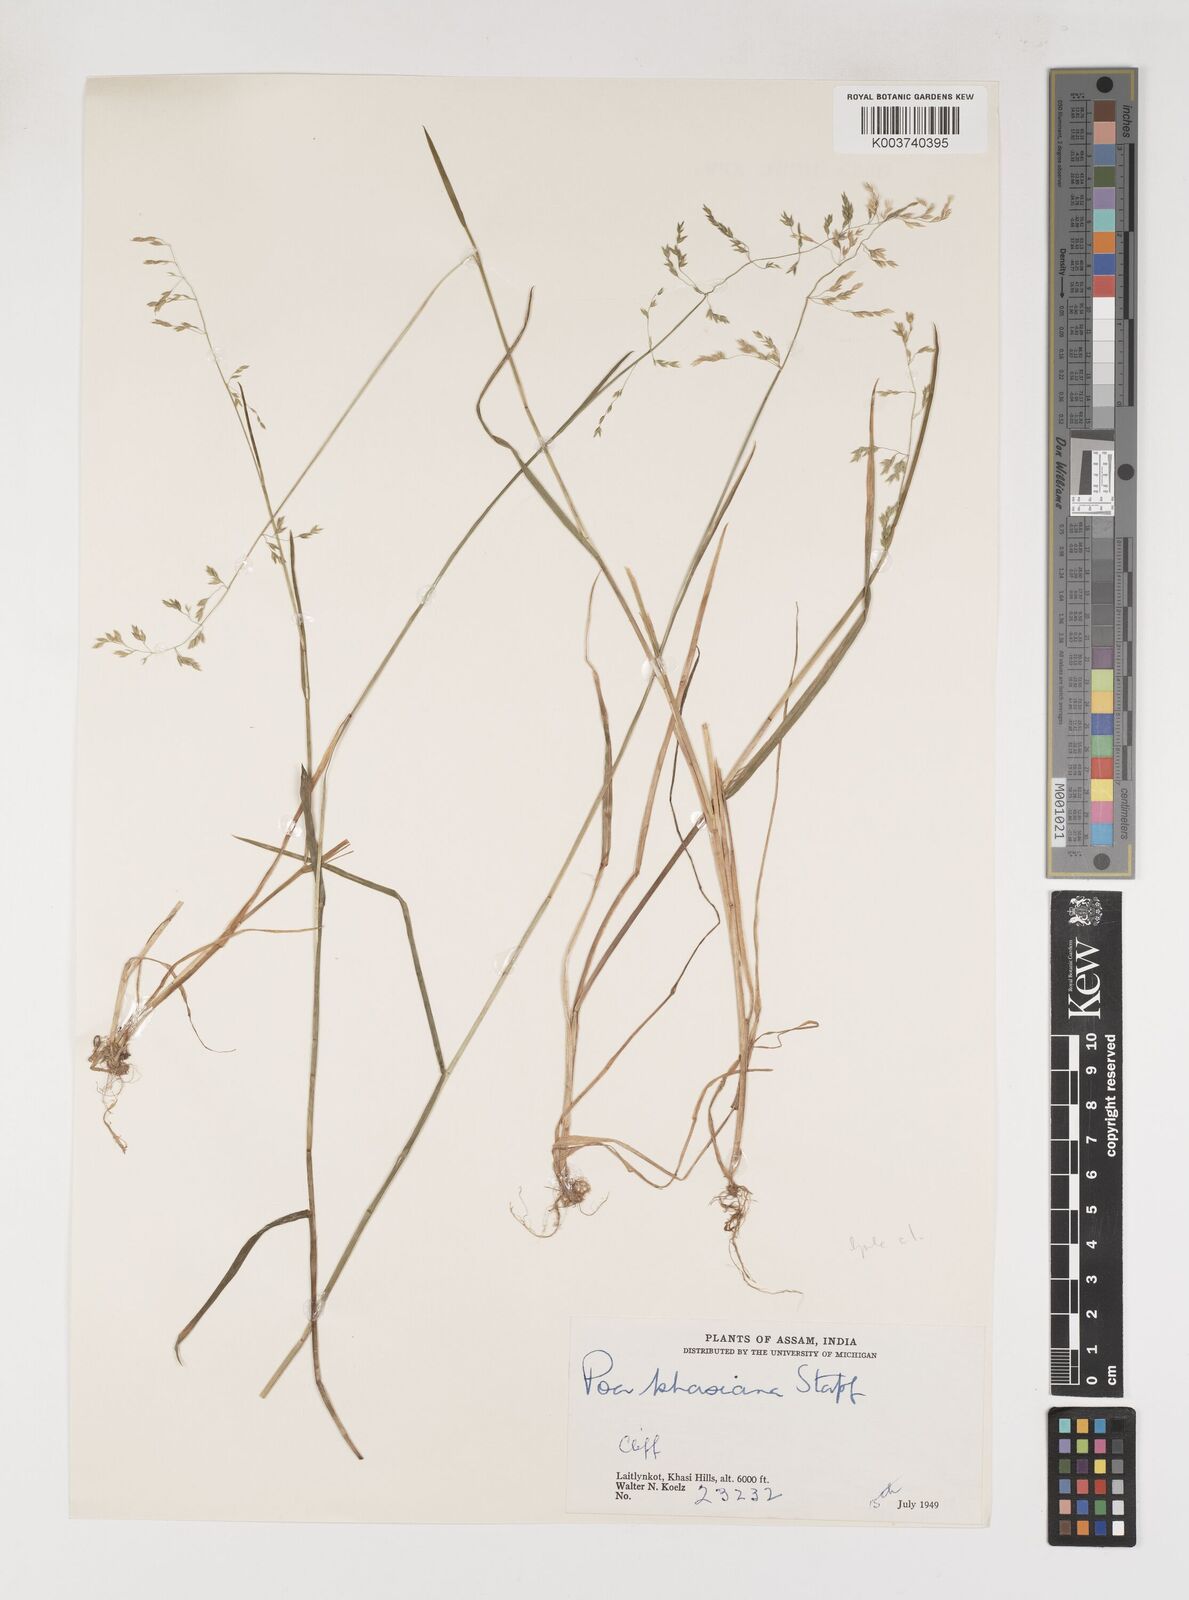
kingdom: Plantae
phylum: Tracheophyta
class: Liliopsida
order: Poales
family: Poaceae
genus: Poa
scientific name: Poa khasiana
